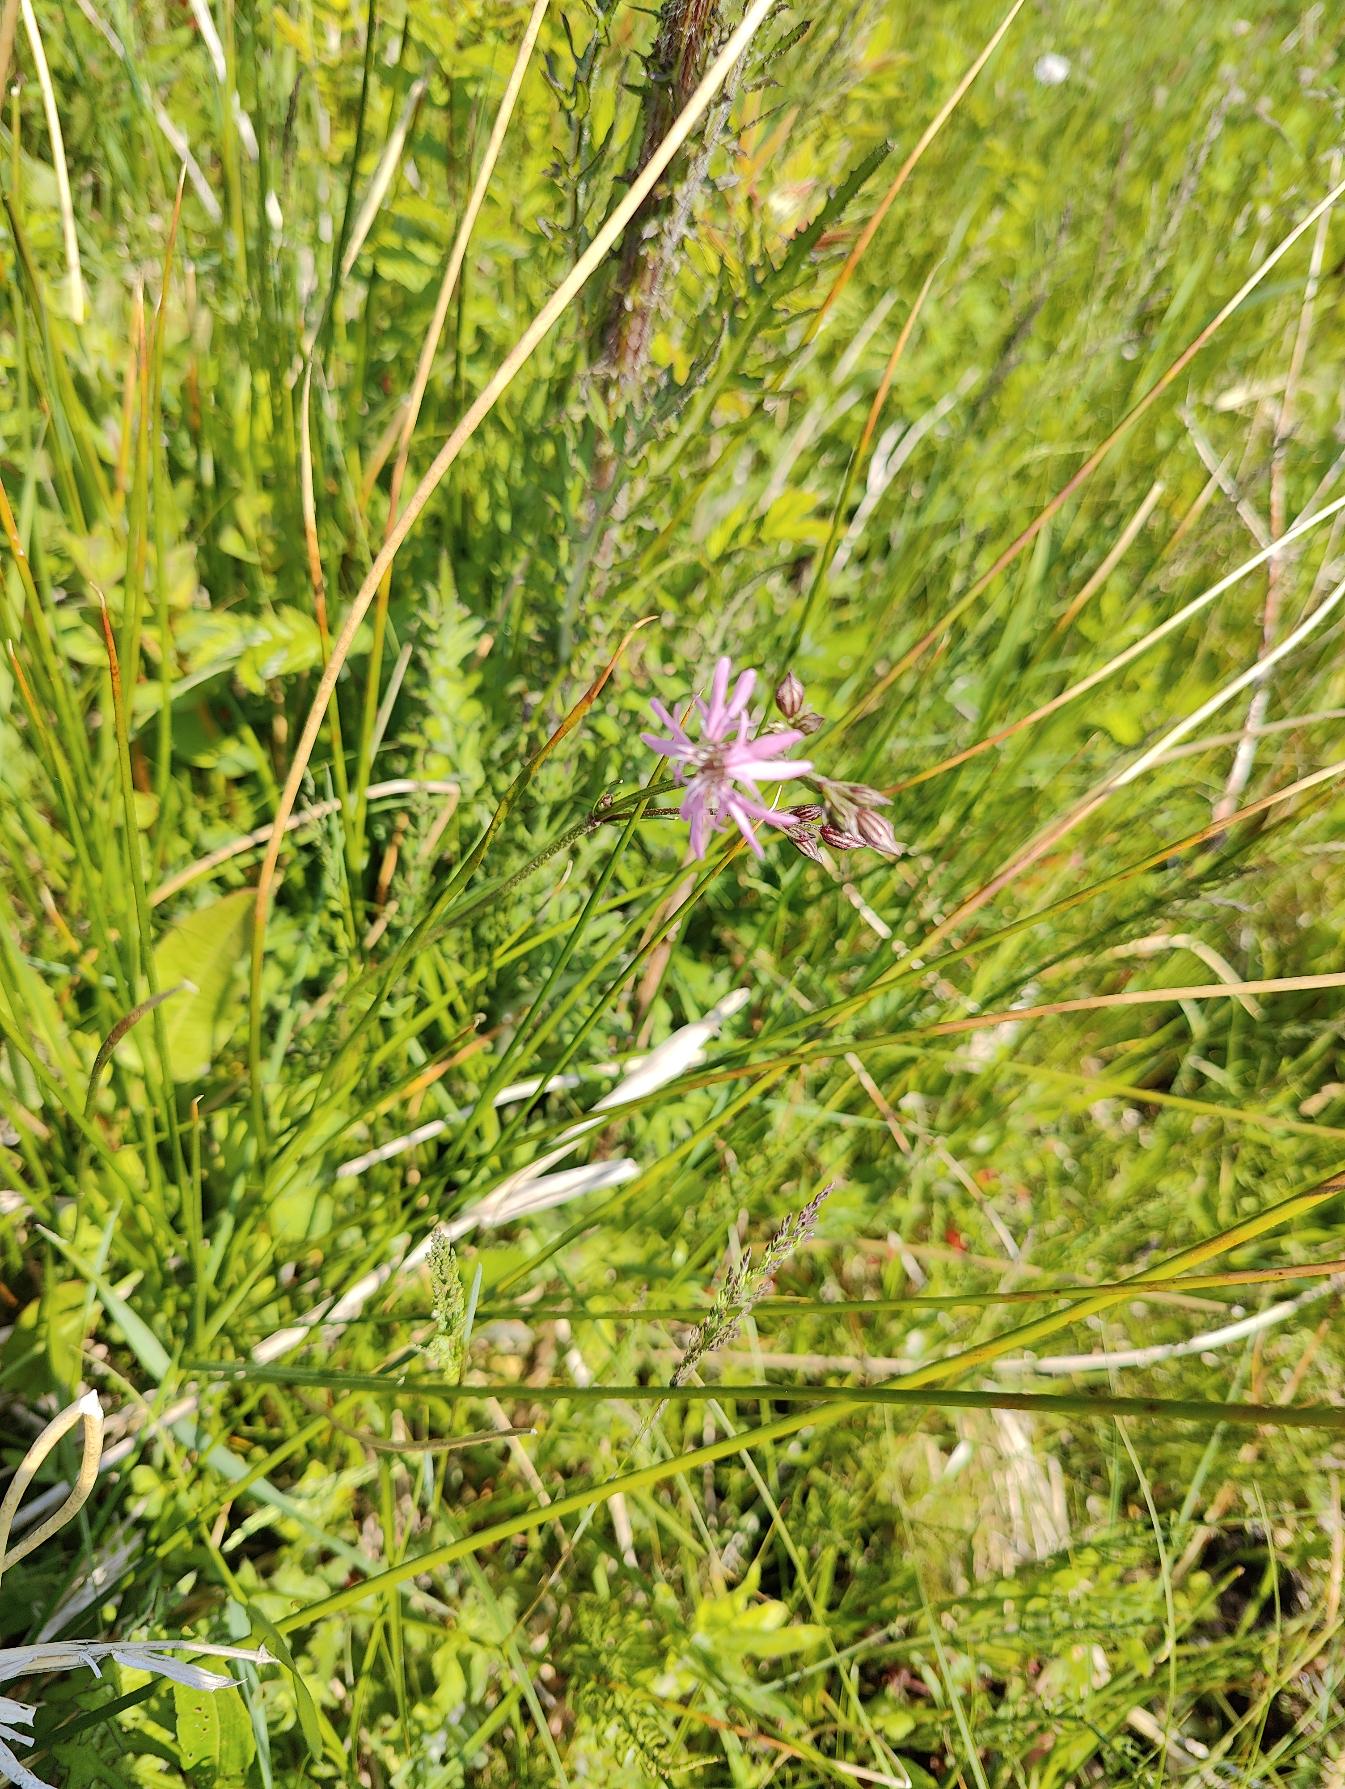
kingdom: Plantae
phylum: Tracheophyta
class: Magnoliopsida
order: Caryophyllales
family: Caryophyllaceae
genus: Silene
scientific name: Silene flos-cuculi
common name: Trævlekrone
